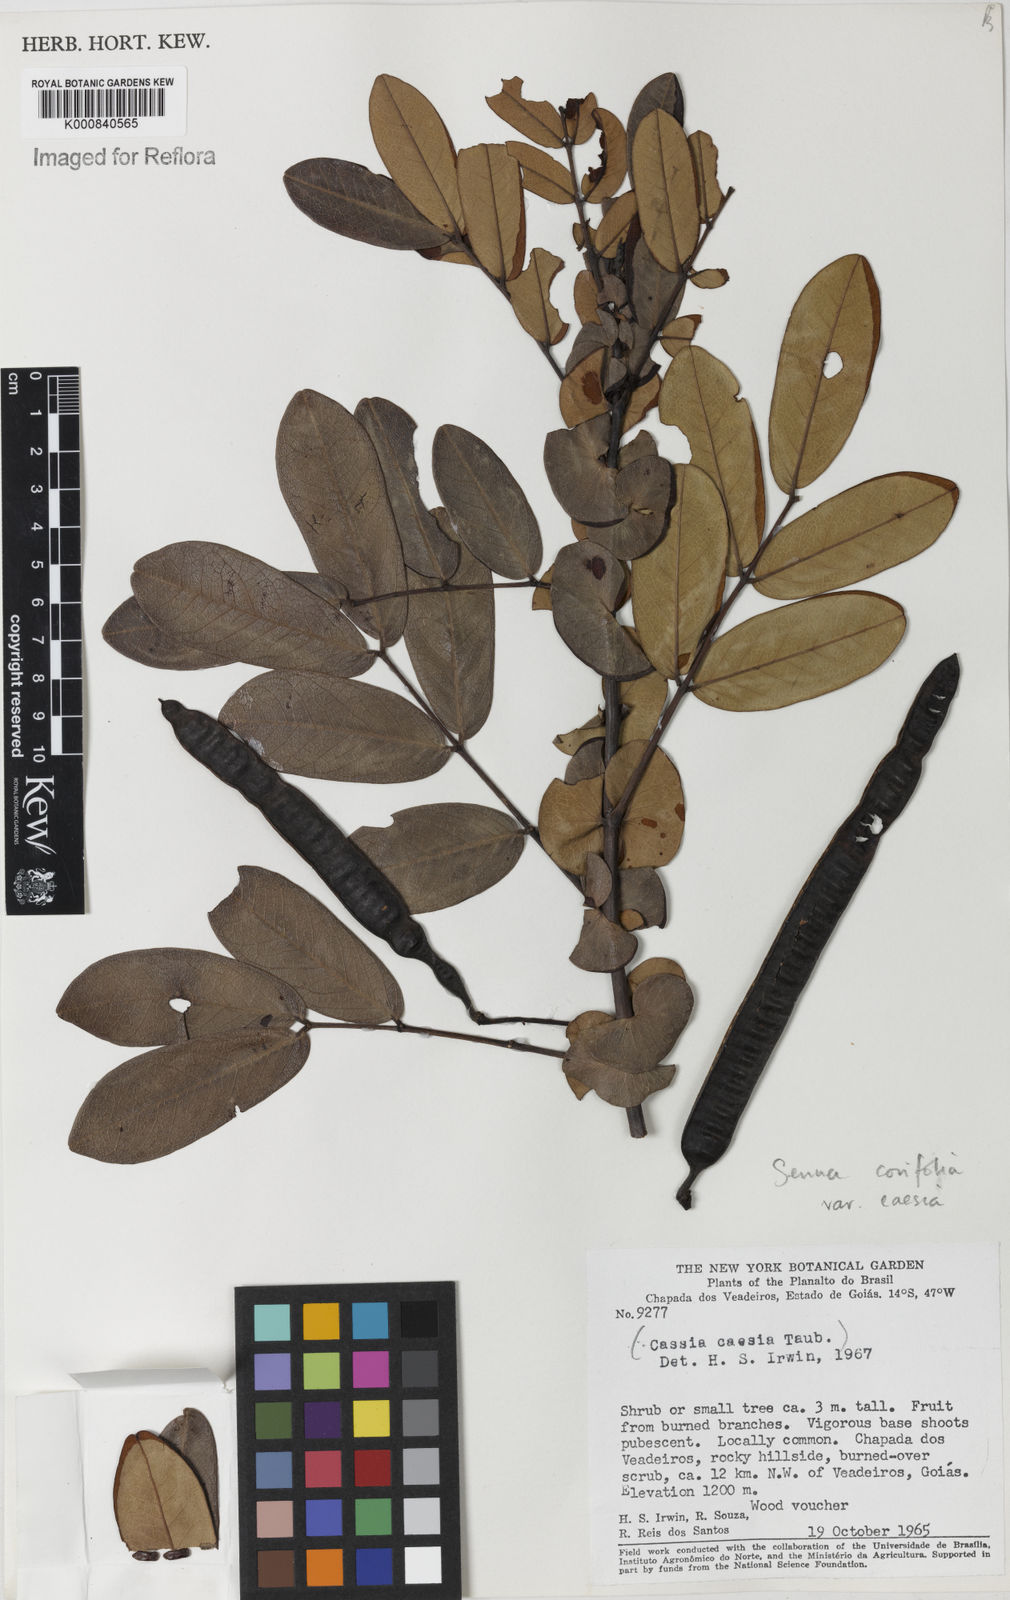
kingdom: Plantae
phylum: Tracheophyta
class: Magnoliopsida
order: Fabales
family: Fabaceae
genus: Senna
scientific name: Senna corifolia
